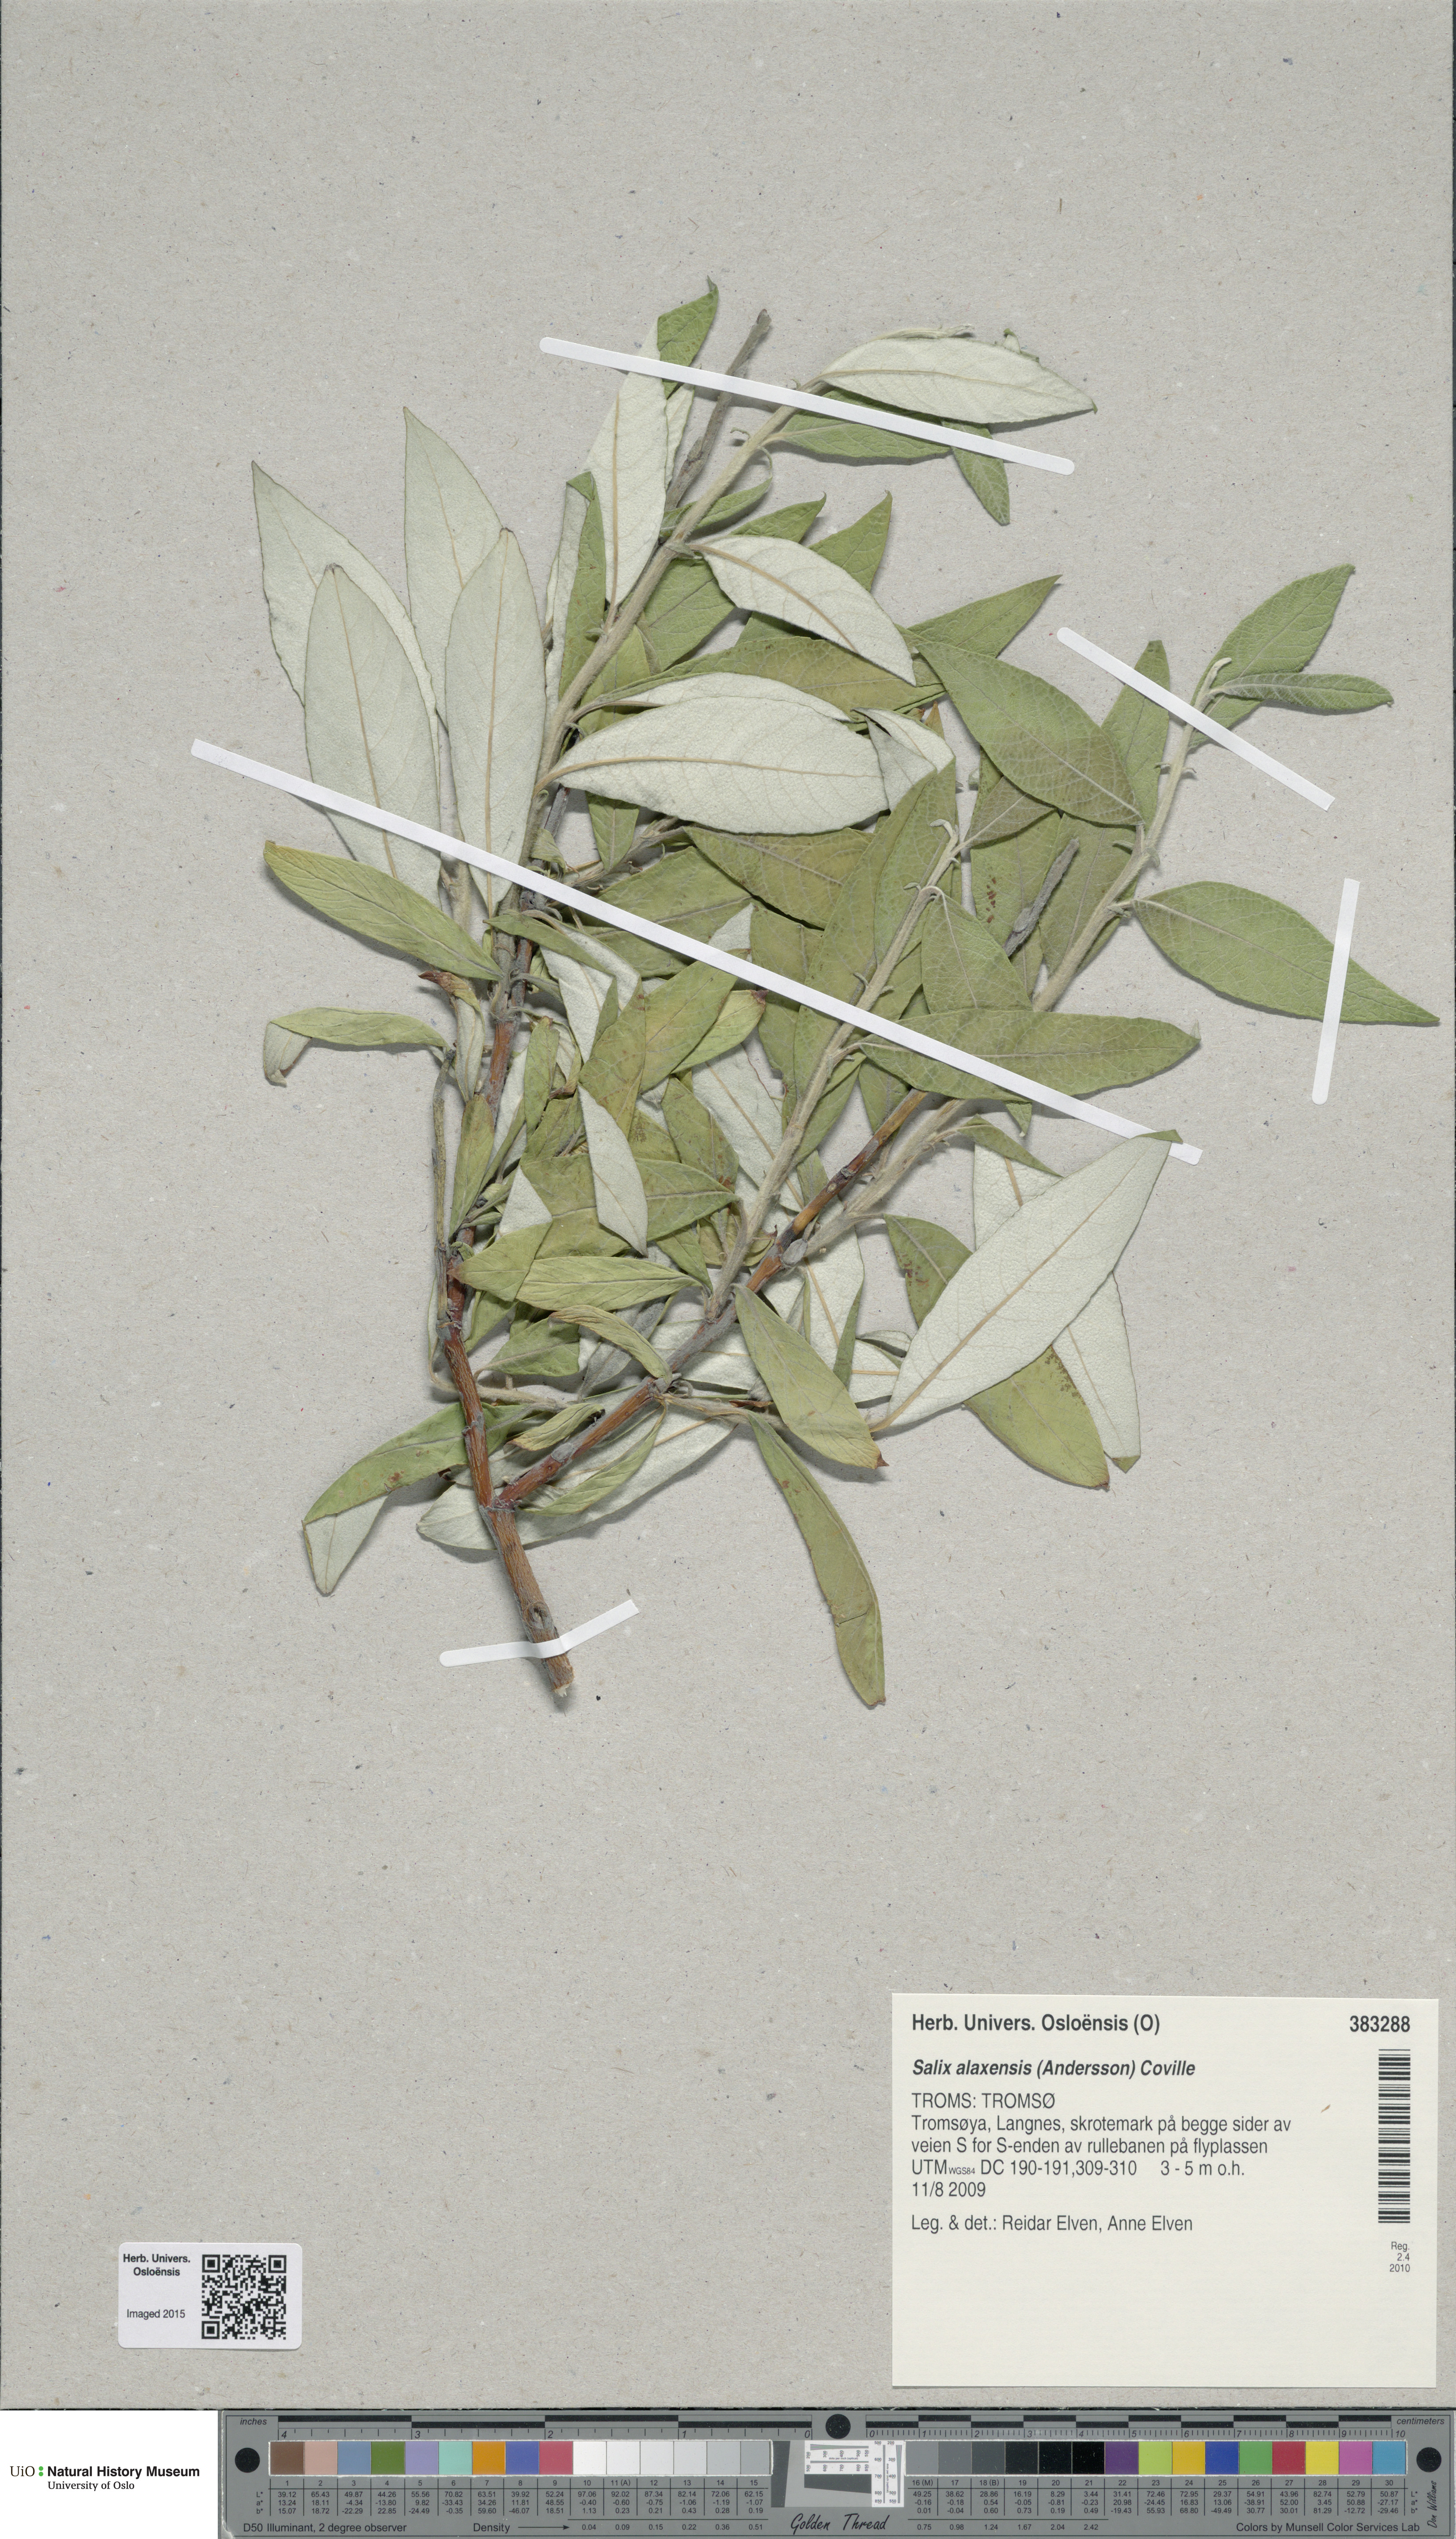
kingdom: Plantae
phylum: Tracheophyta
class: Magnoliopsida
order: Malpighiales
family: Salicaceae
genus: Salix
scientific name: Salix alaxensis
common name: Feltleaf willow
